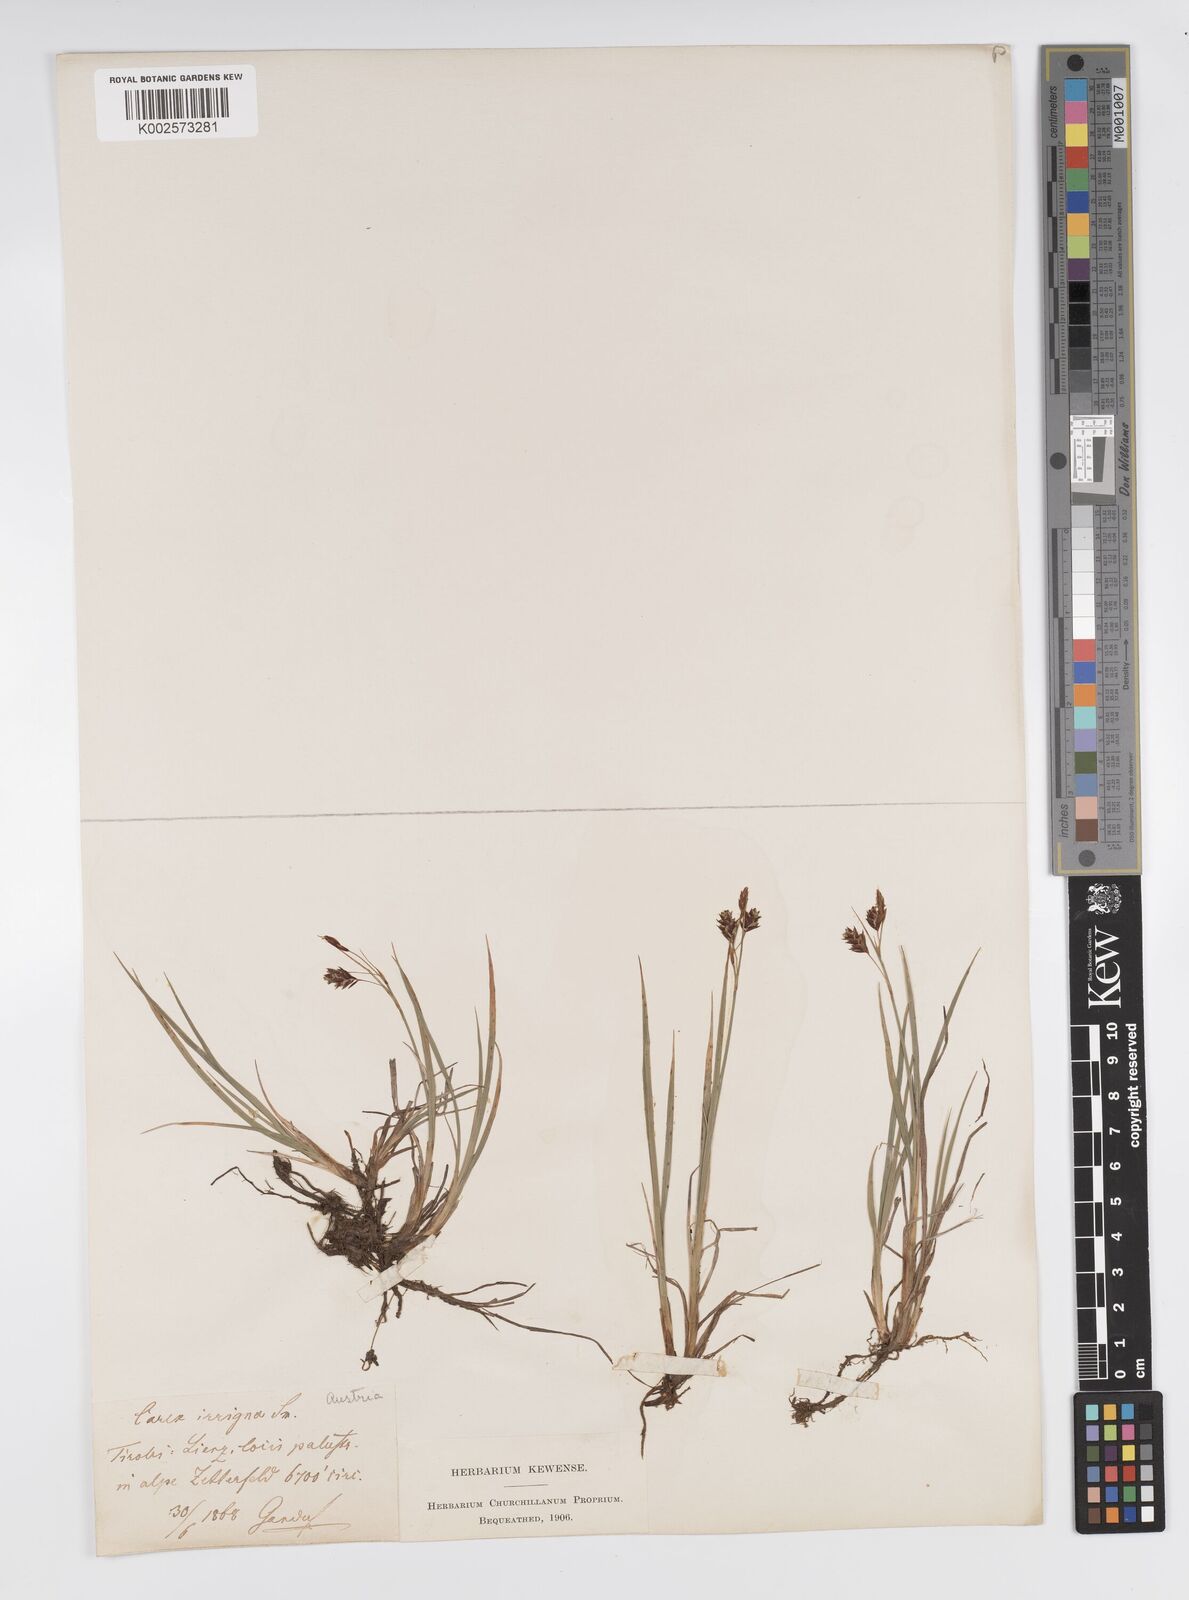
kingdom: Plantae
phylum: Tracheophyta
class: Liliopsida
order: Poales
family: Cyperaceae
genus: Carex
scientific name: Carex magellanica
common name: Bog sedge
